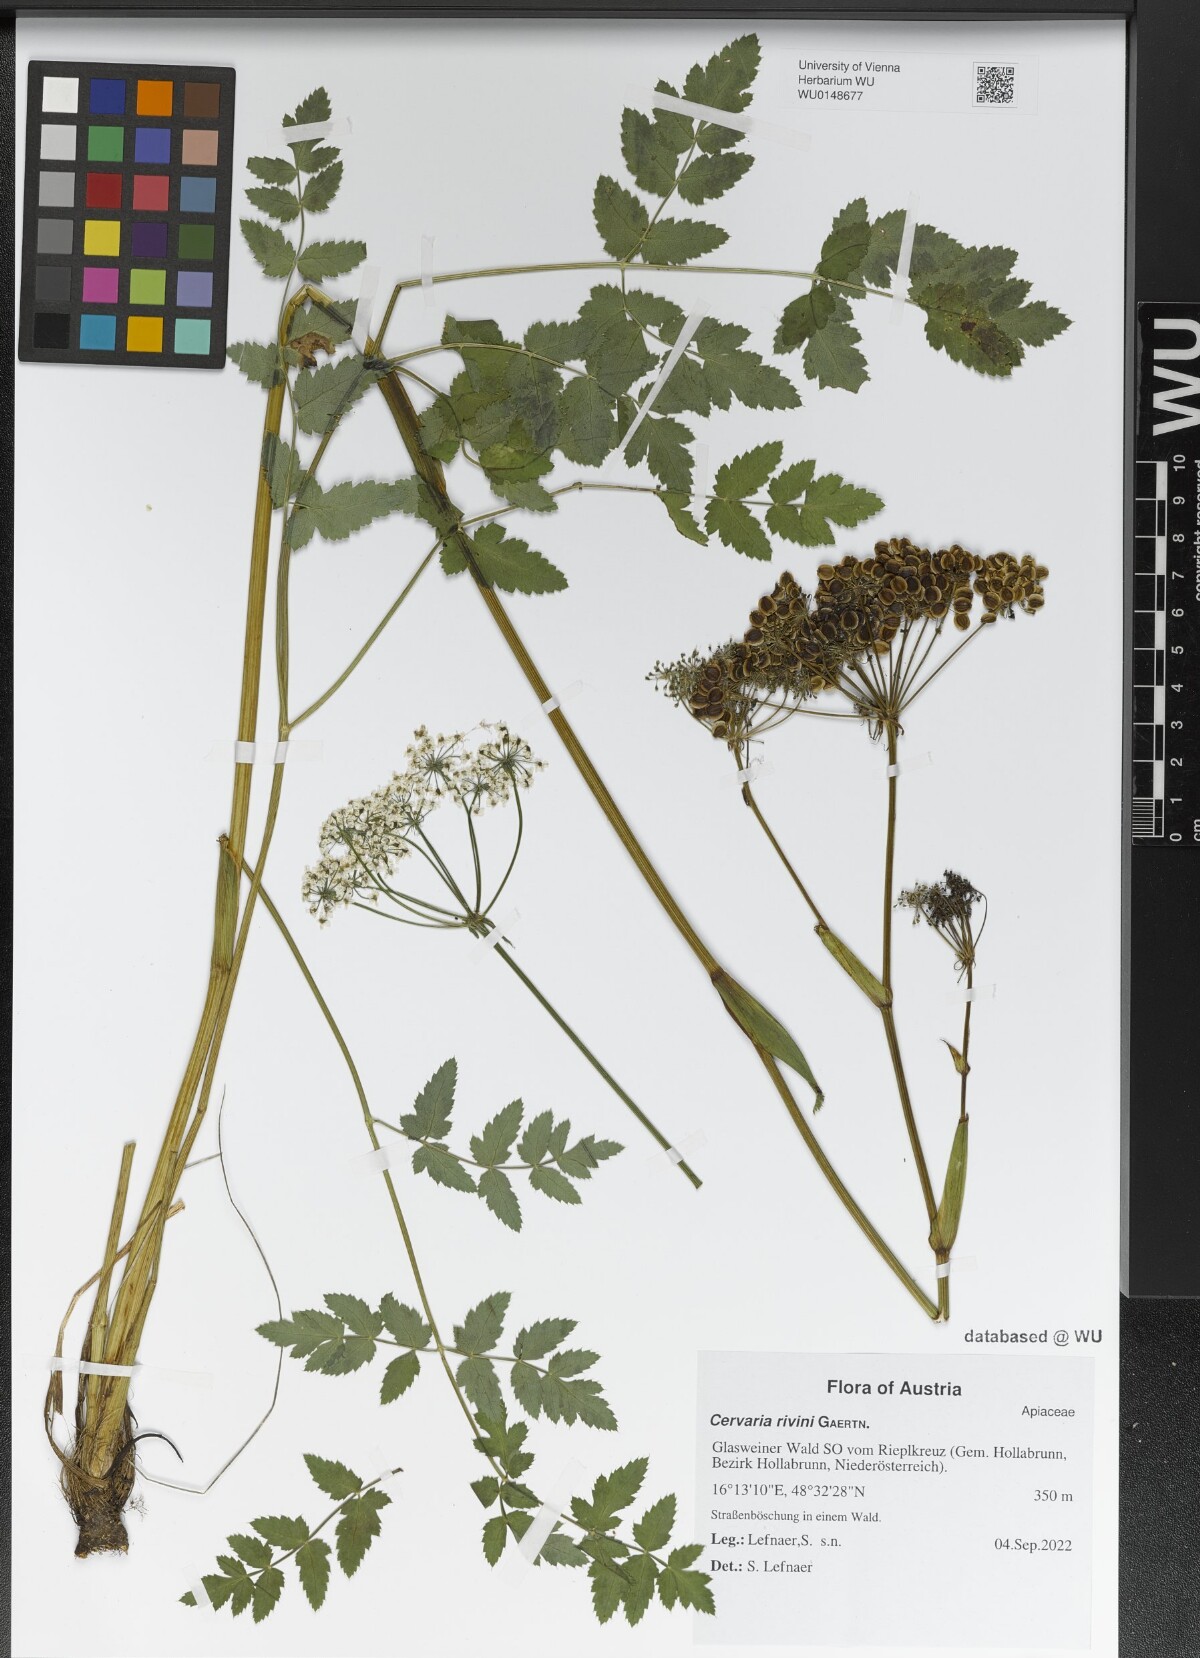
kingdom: Plantae
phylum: Tracheophyta
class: Magnoliopsida
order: Apiales
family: Apiaceae
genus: Cervaria
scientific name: Cervaria rivini
